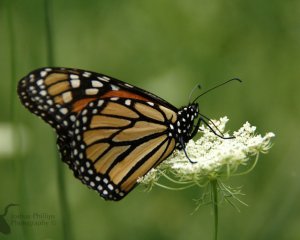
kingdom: Animalia
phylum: Arthropoda
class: Insecta
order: Lepidoptera
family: Nymphalidae
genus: Danaus
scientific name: Danaus plexippus
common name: Monarch
